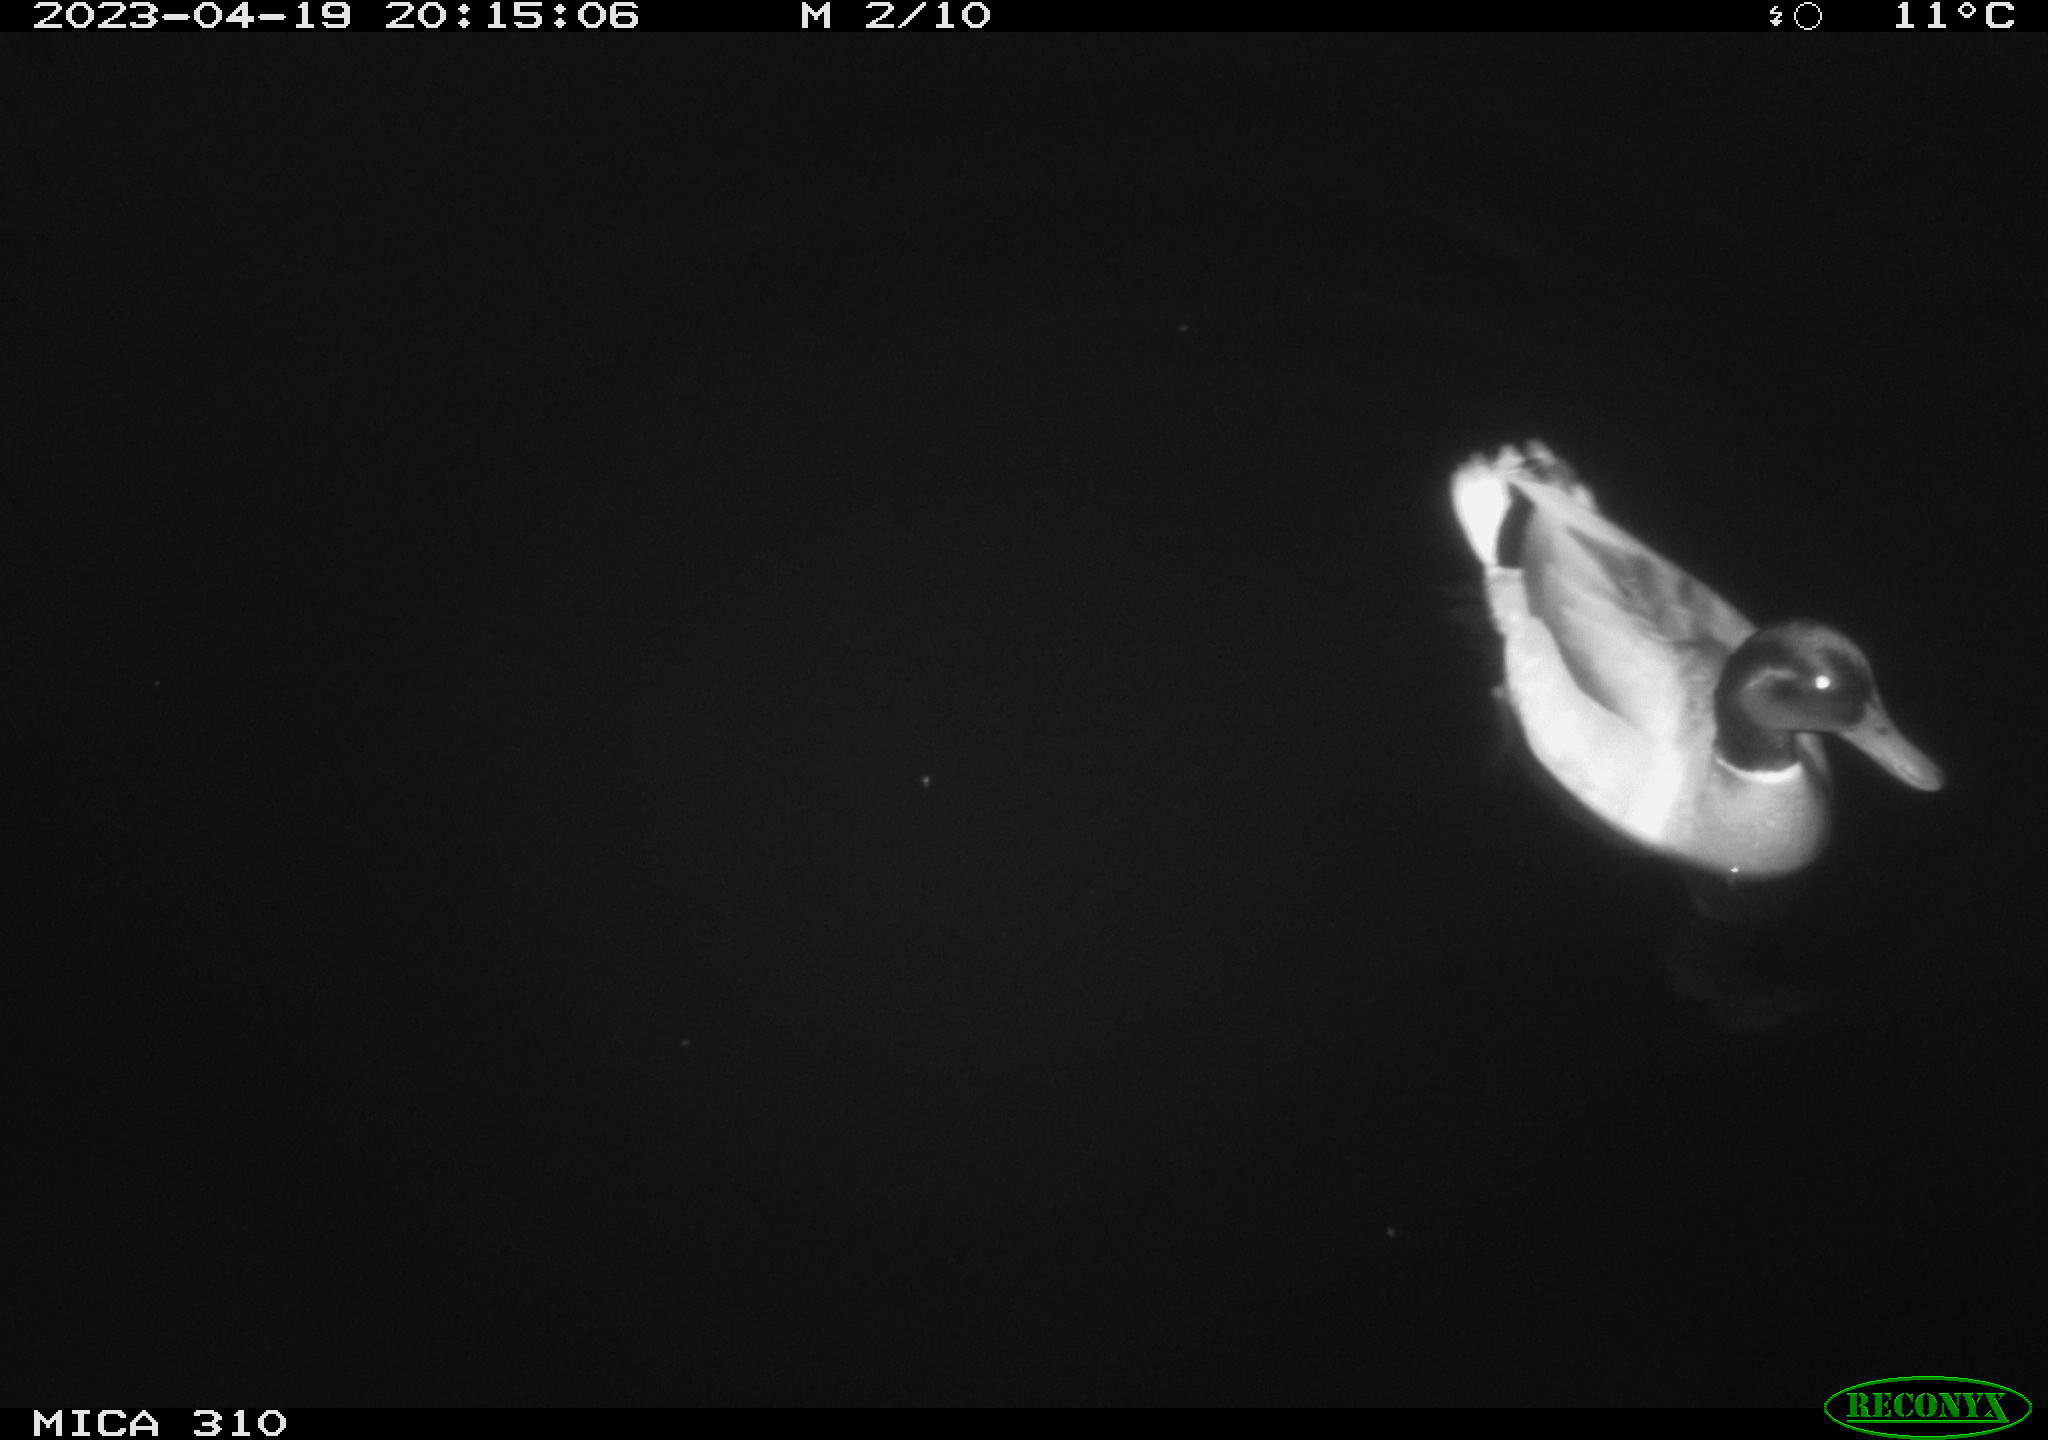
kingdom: Animalia
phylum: Chordata
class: Aves
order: Anseriformes
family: Anatidae
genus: Anas
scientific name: Anas
